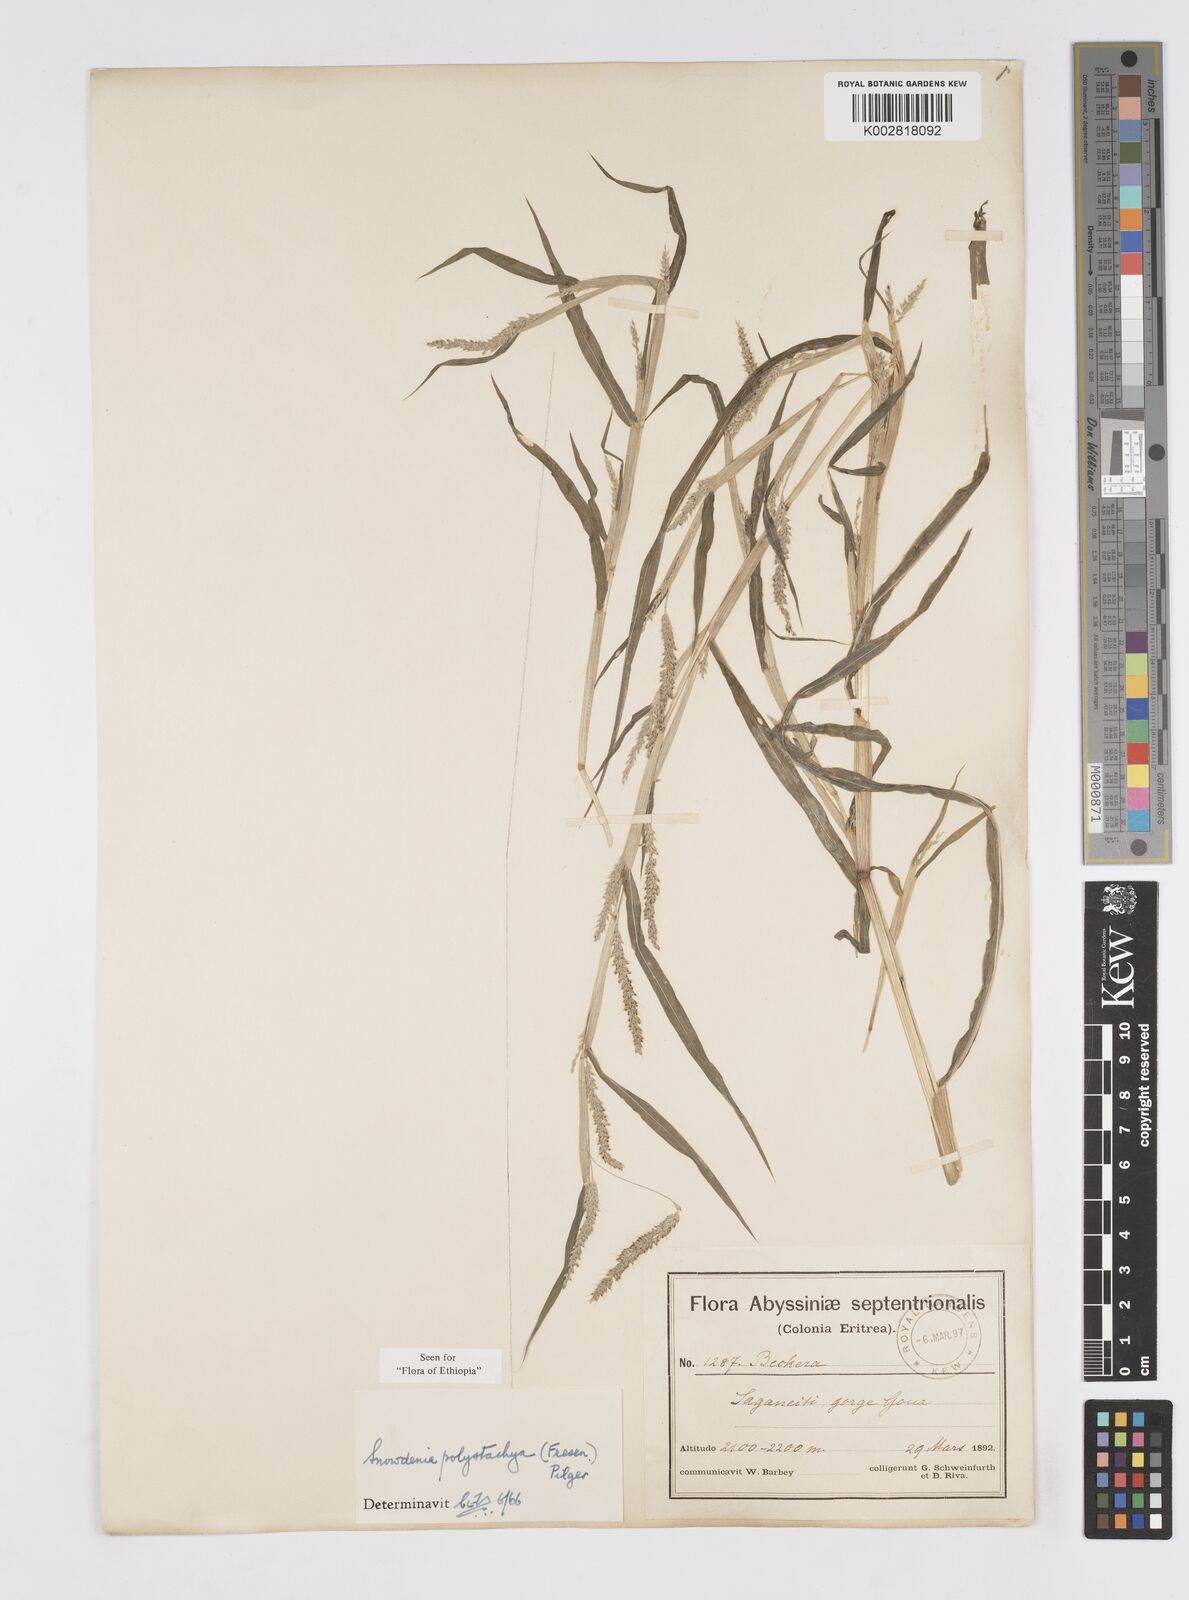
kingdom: Plantae
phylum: Tracheophyta
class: Liliopsida
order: Poales
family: Poaceae
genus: Snowdenia
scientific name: Snowdenia polystachya
